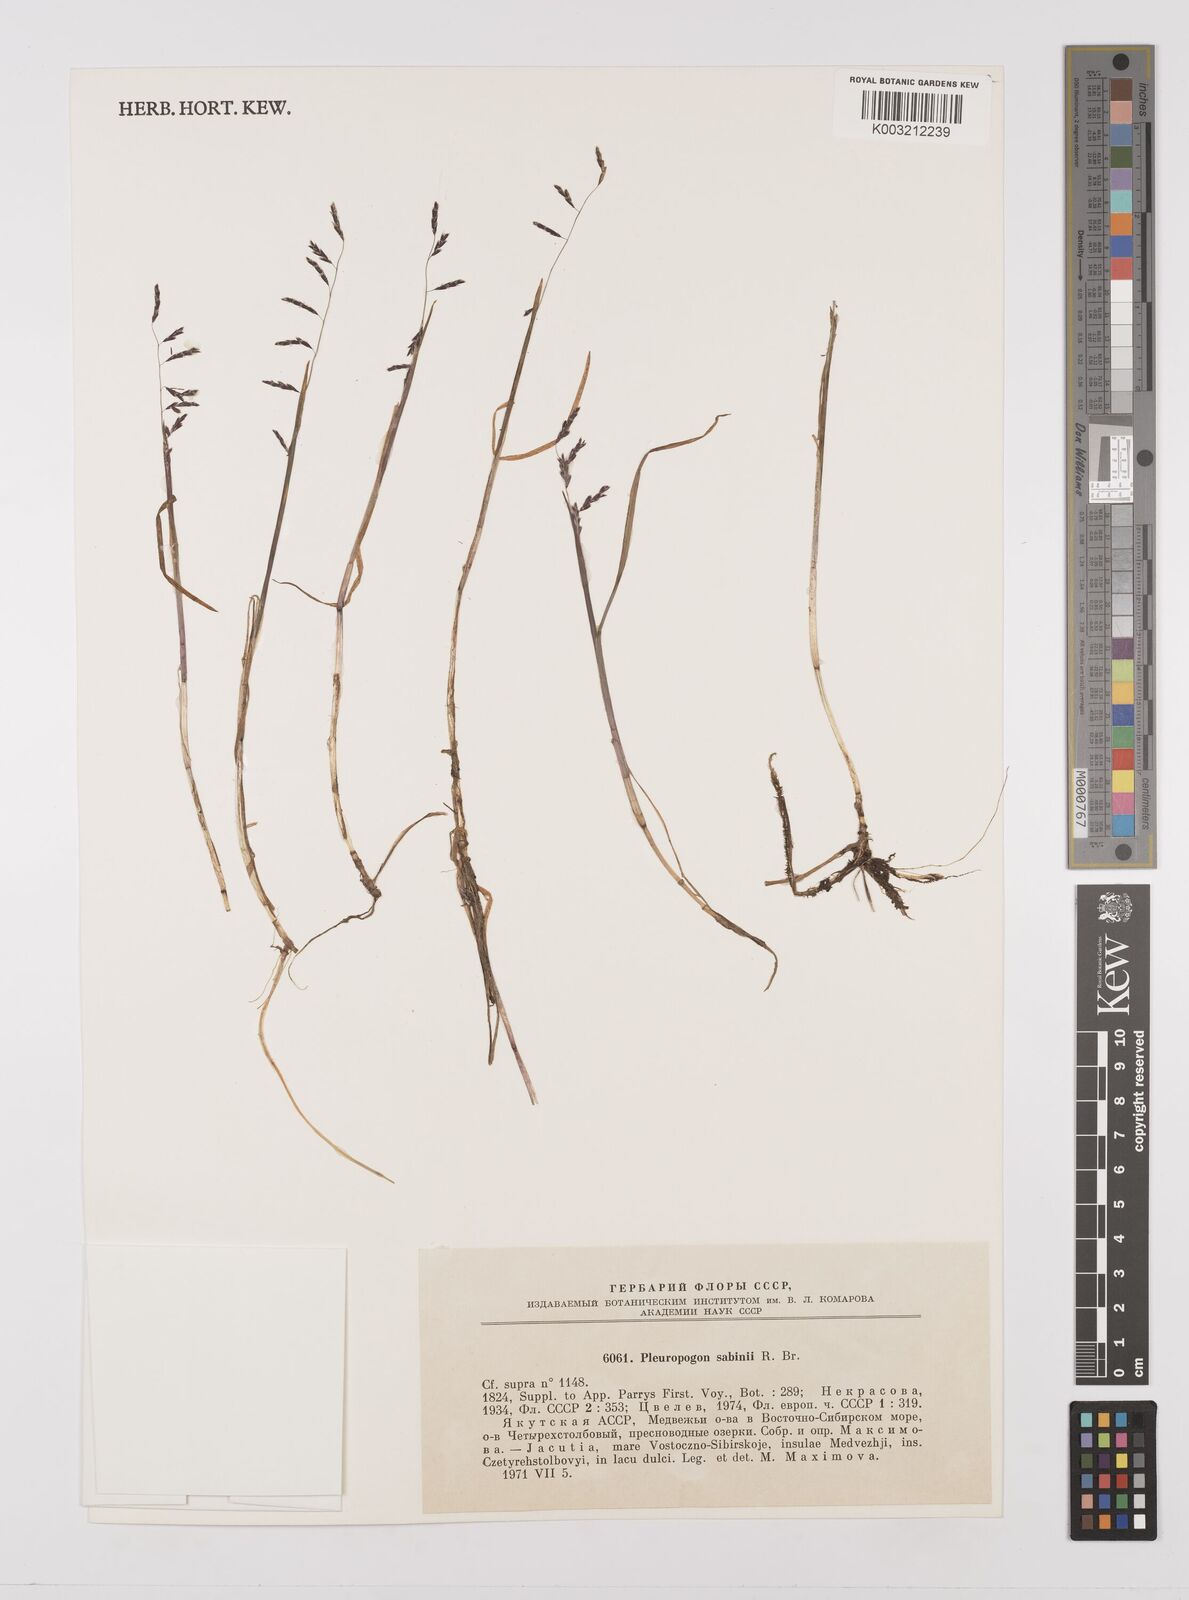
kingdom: Plantae
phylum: Tracheophyta
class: Liliopsida
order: Poales
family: Poaceae
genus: Pleuropogon
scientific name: Pleuropogon sabinei
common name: Sabine's false semaphoregrass
